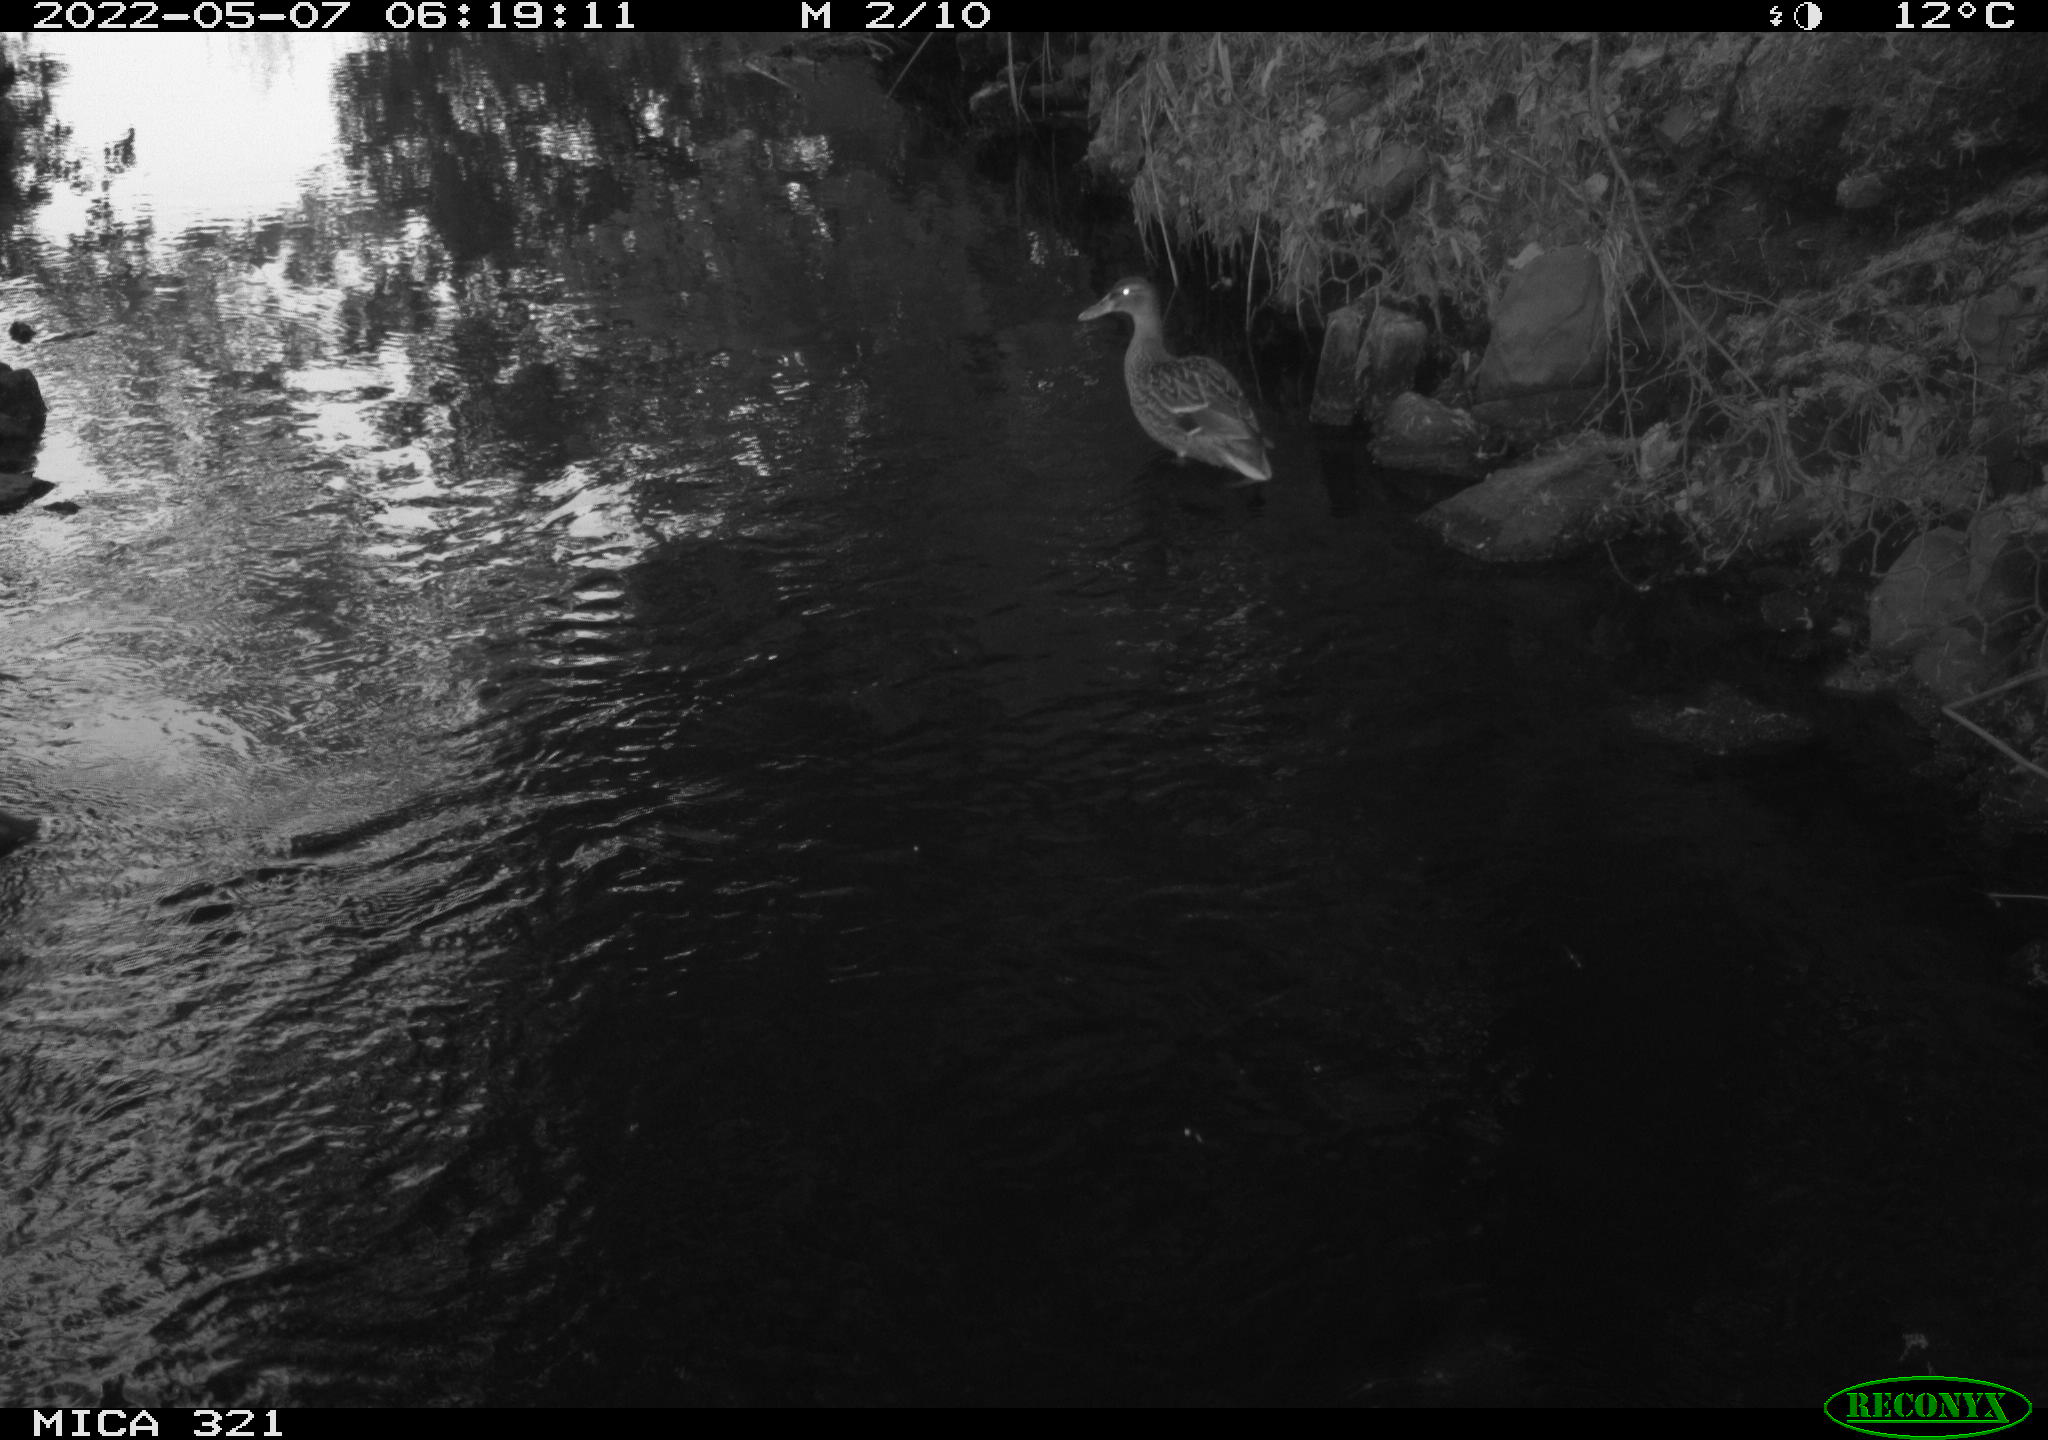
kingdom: Animalia
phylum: Chordata
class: Aves
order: Anseriformes
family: Anatidae
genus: Anas
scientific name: Anas platyrhynchos
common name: Mallard
